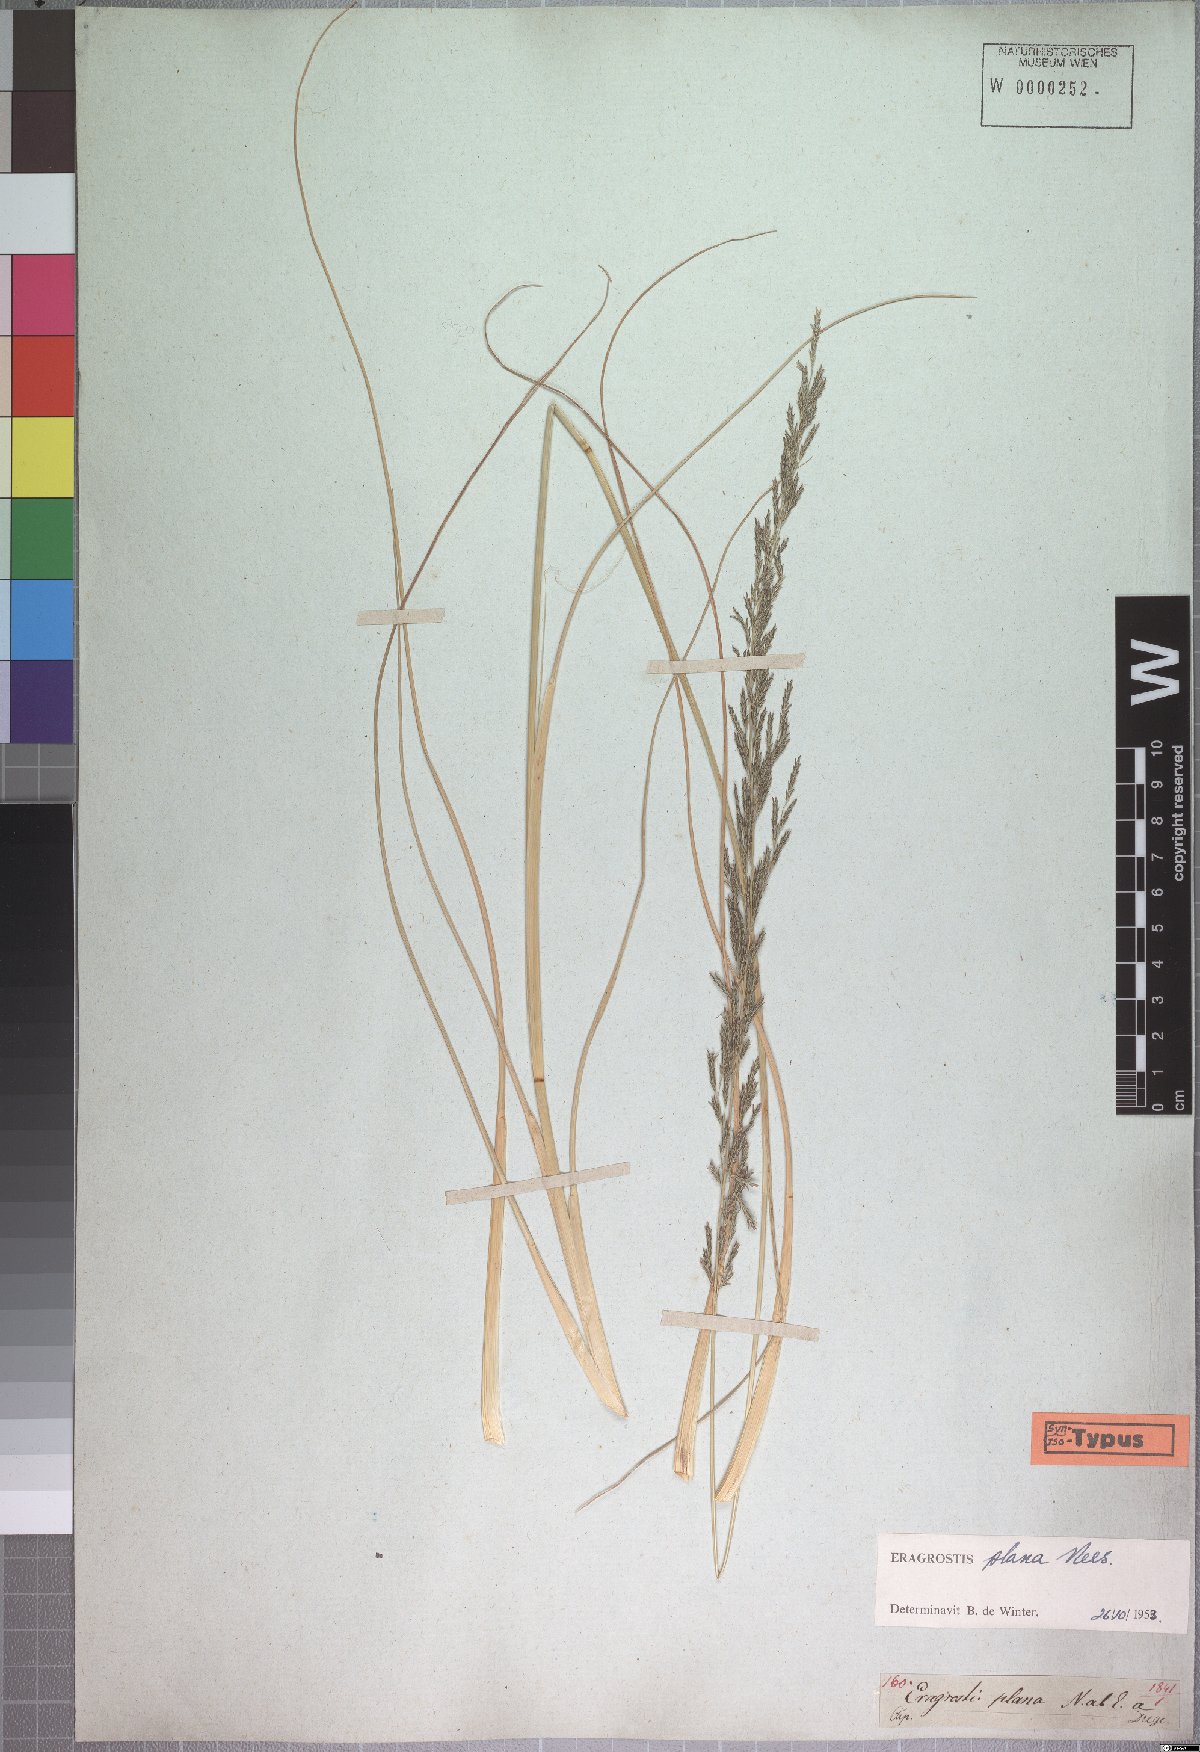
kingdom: Plantae
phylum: Tracheophyta
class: Liliopsida
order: Poales
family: Poaceae
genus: Eragrostis
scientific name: Eragrostis plana
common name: South african lovegrass
